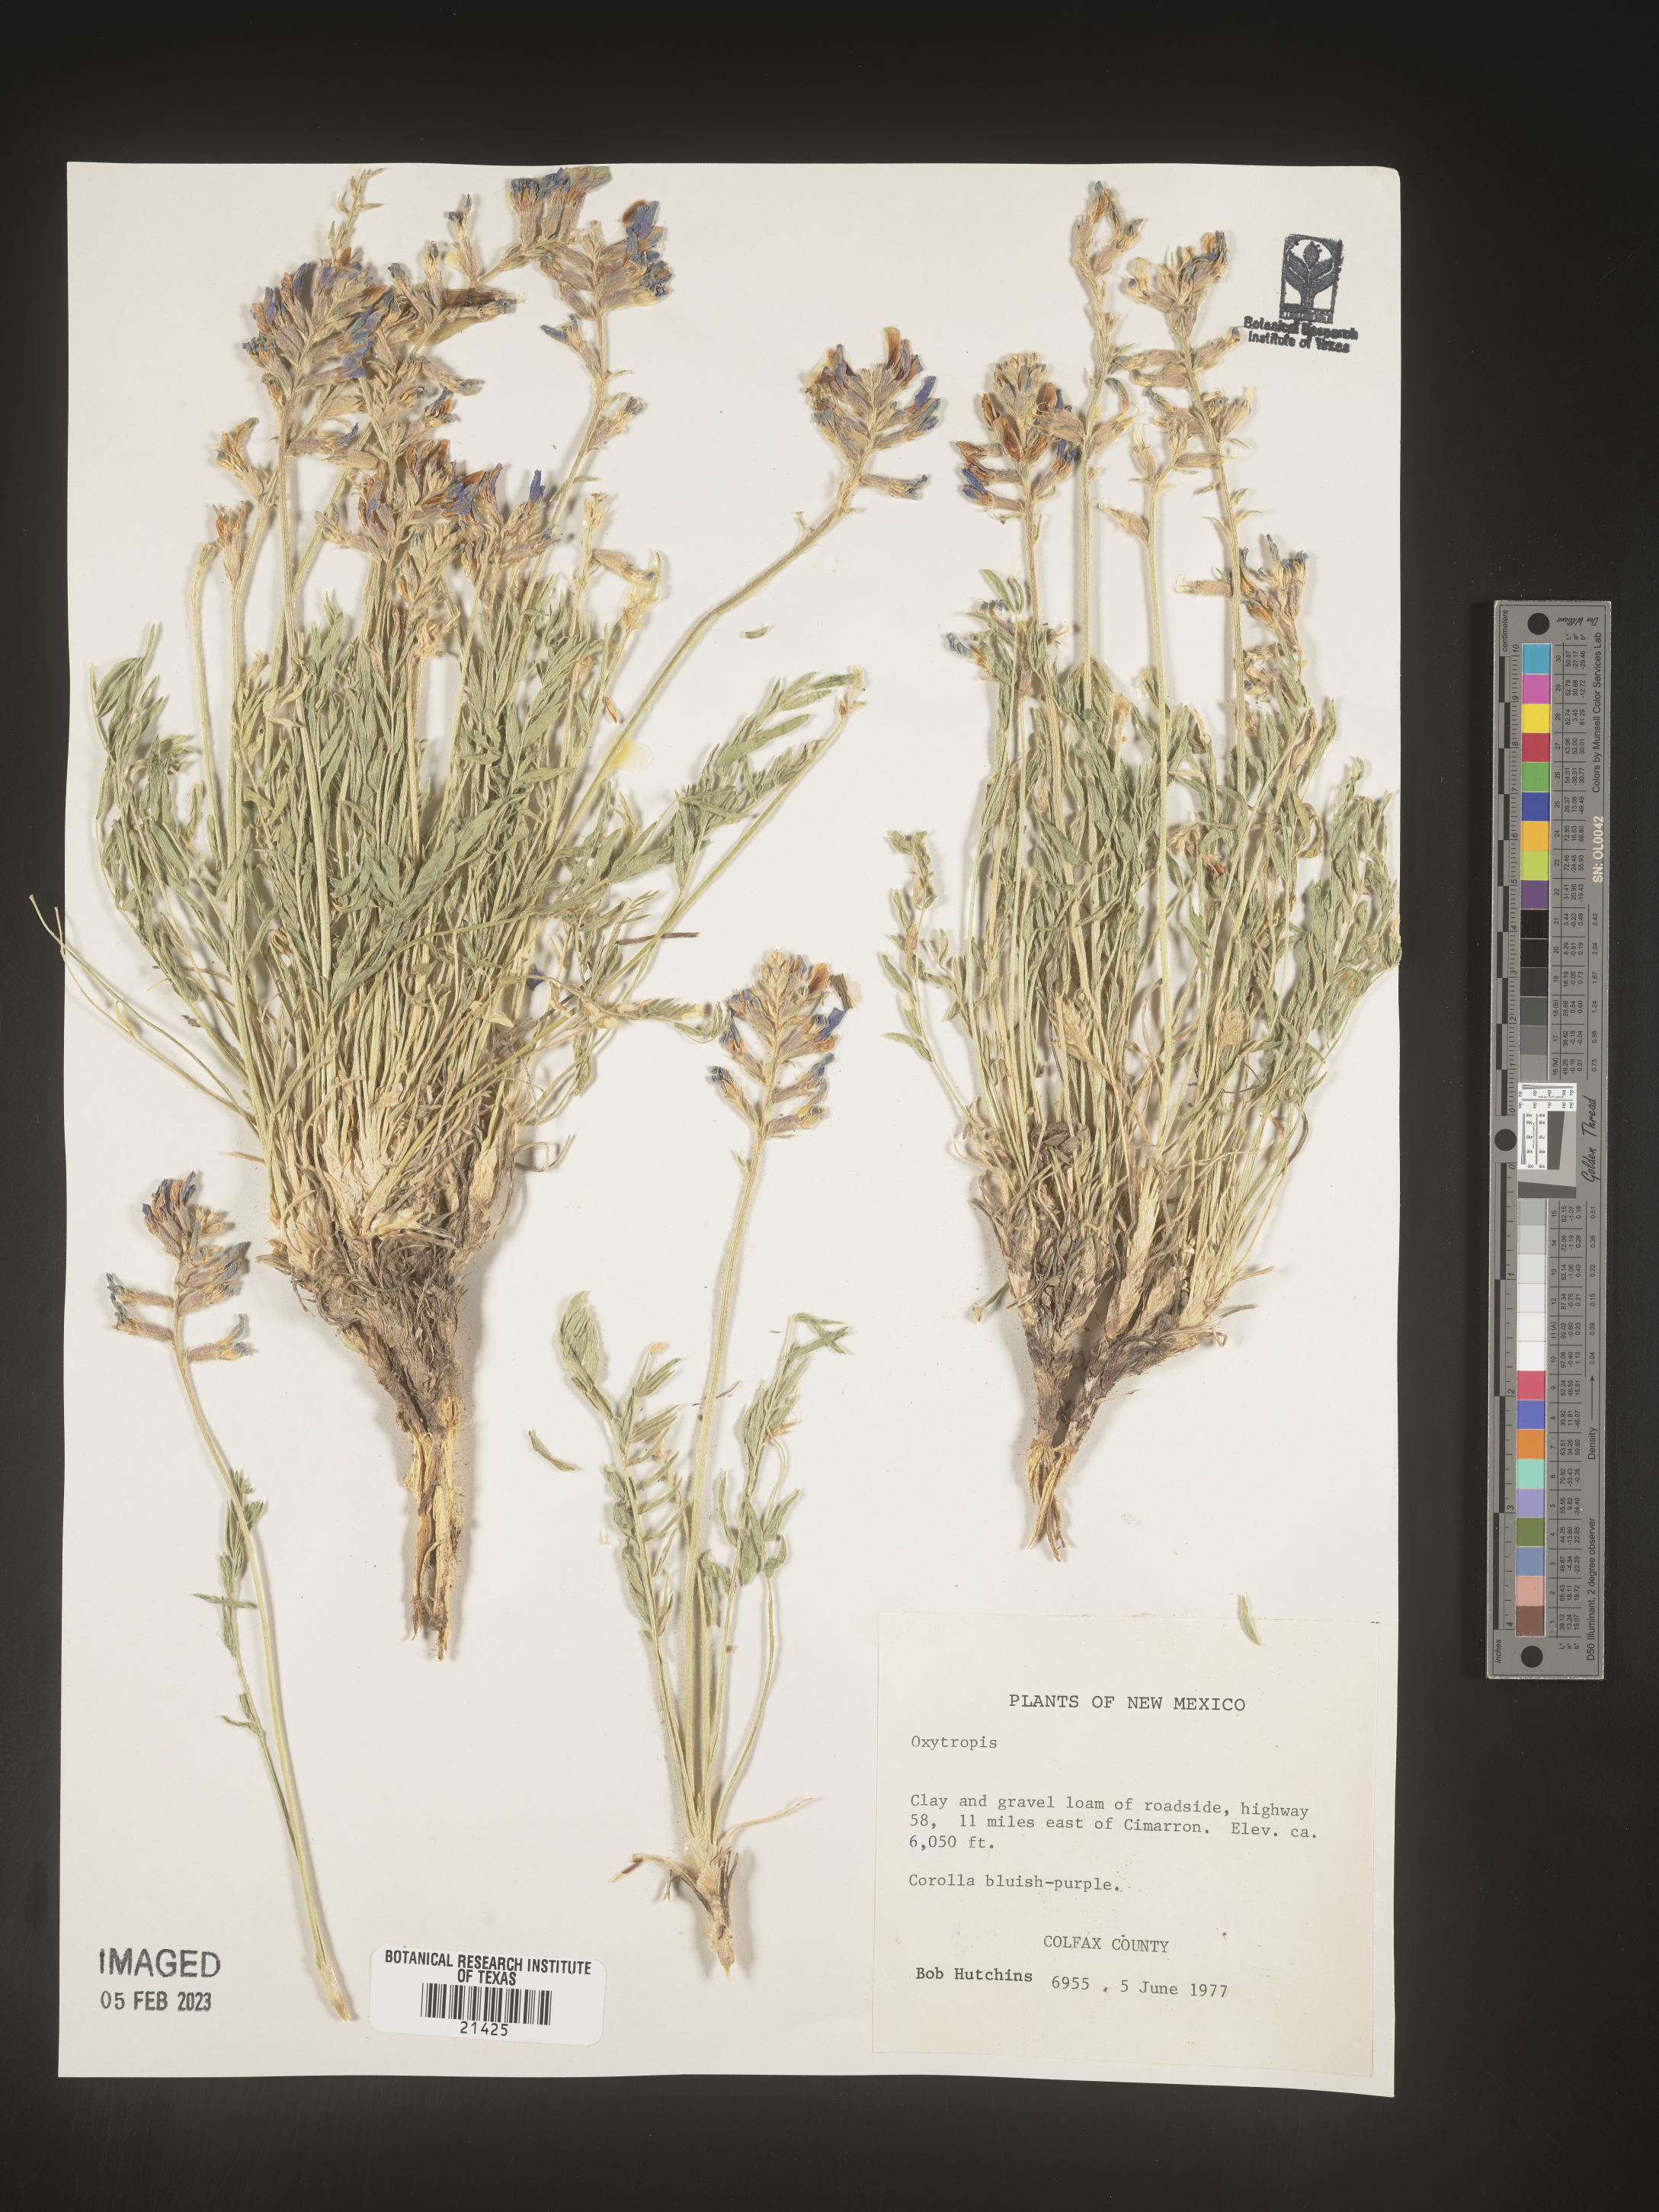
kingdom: Plantae
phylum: Tracheophyta
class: Magnoliopsida
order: Fabales
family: Fabaceae
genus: Oxytropis
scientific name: Oxytropis
